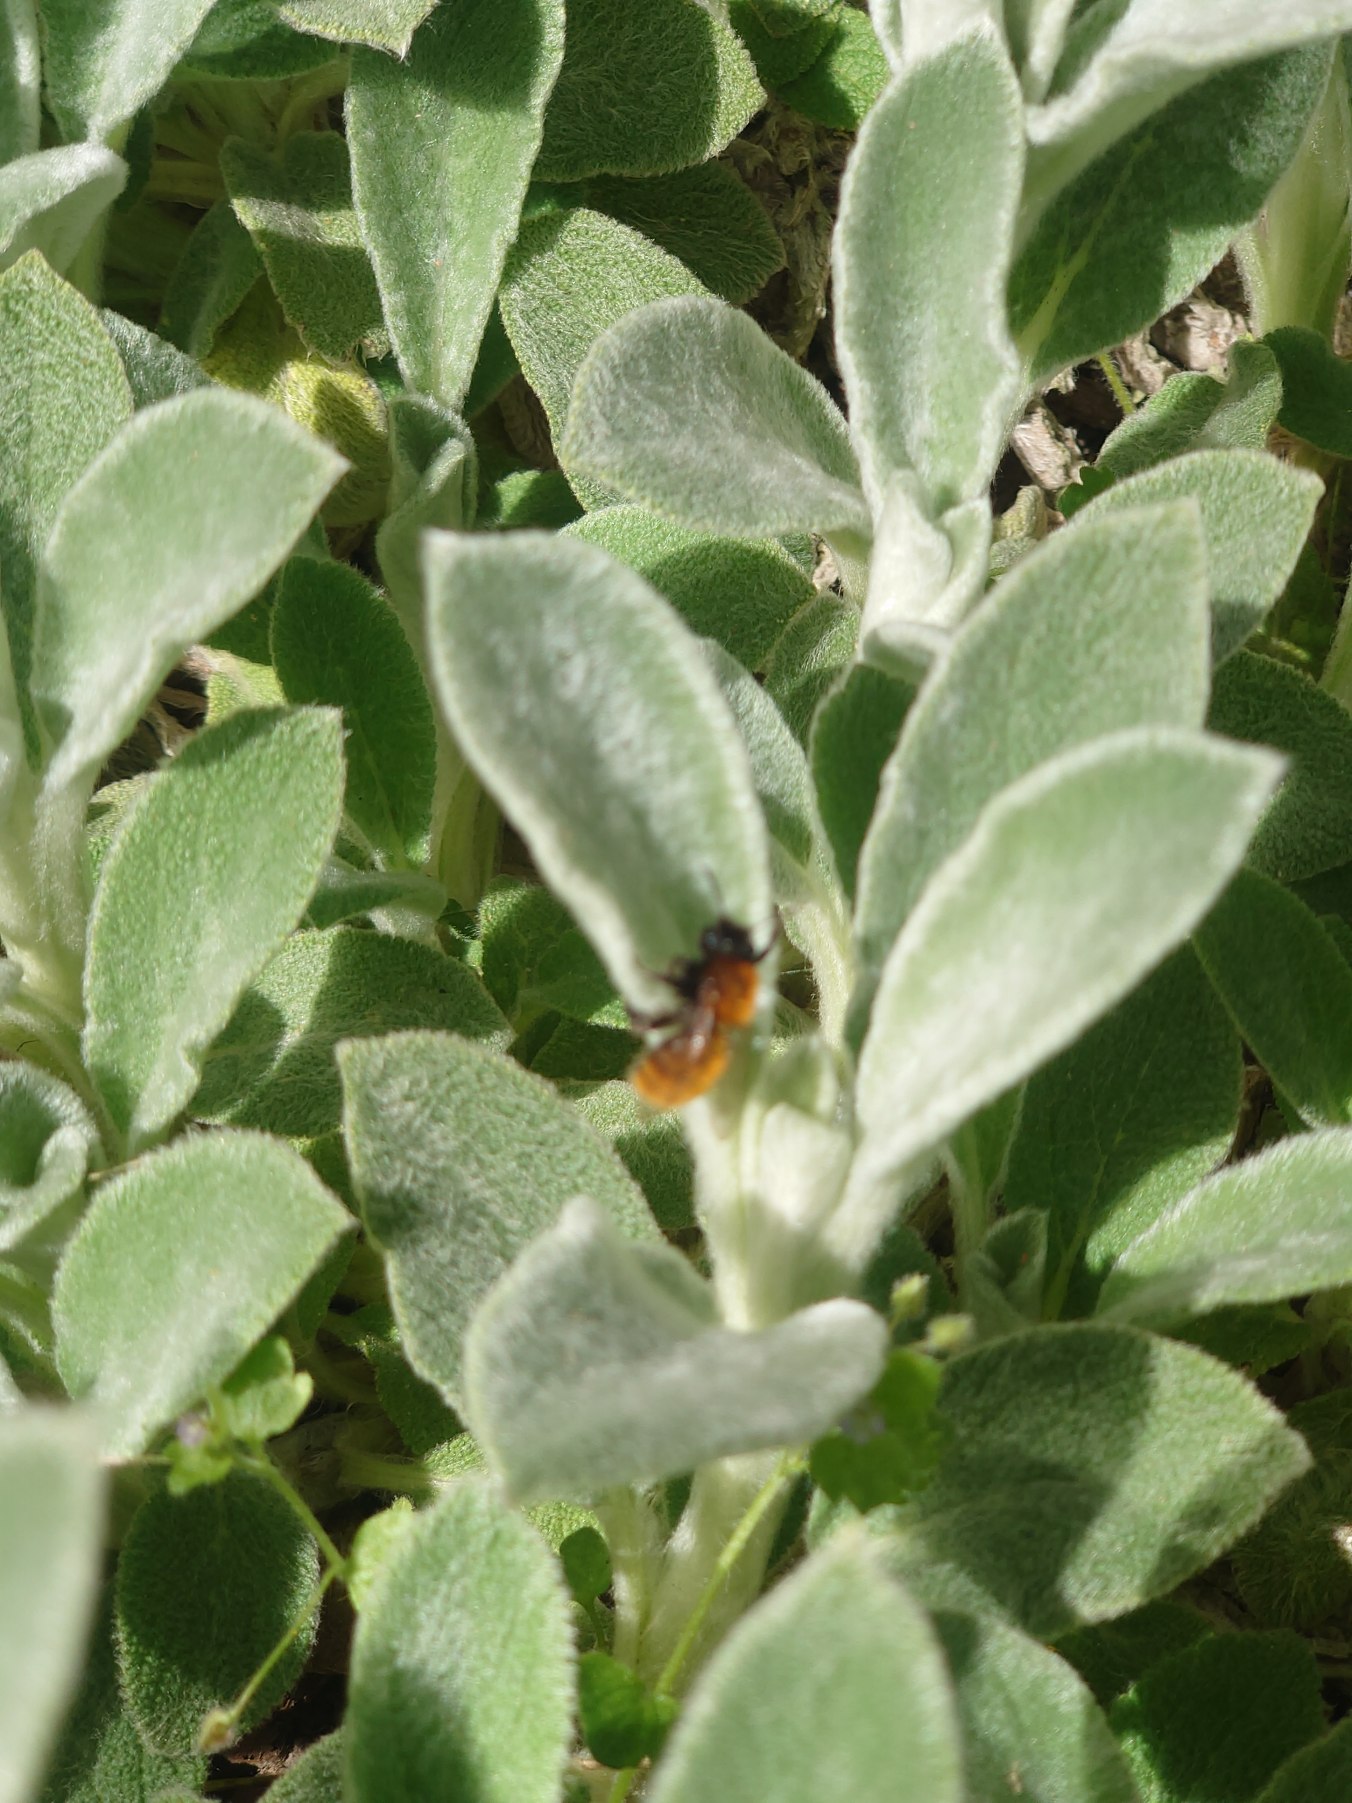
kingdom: Animalia
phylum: Arthropoda
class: Insecta
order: Hymenoptera
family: Andrenidae
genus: Andrena
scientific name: Andrena fulva
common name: Rødpelset jordbi
